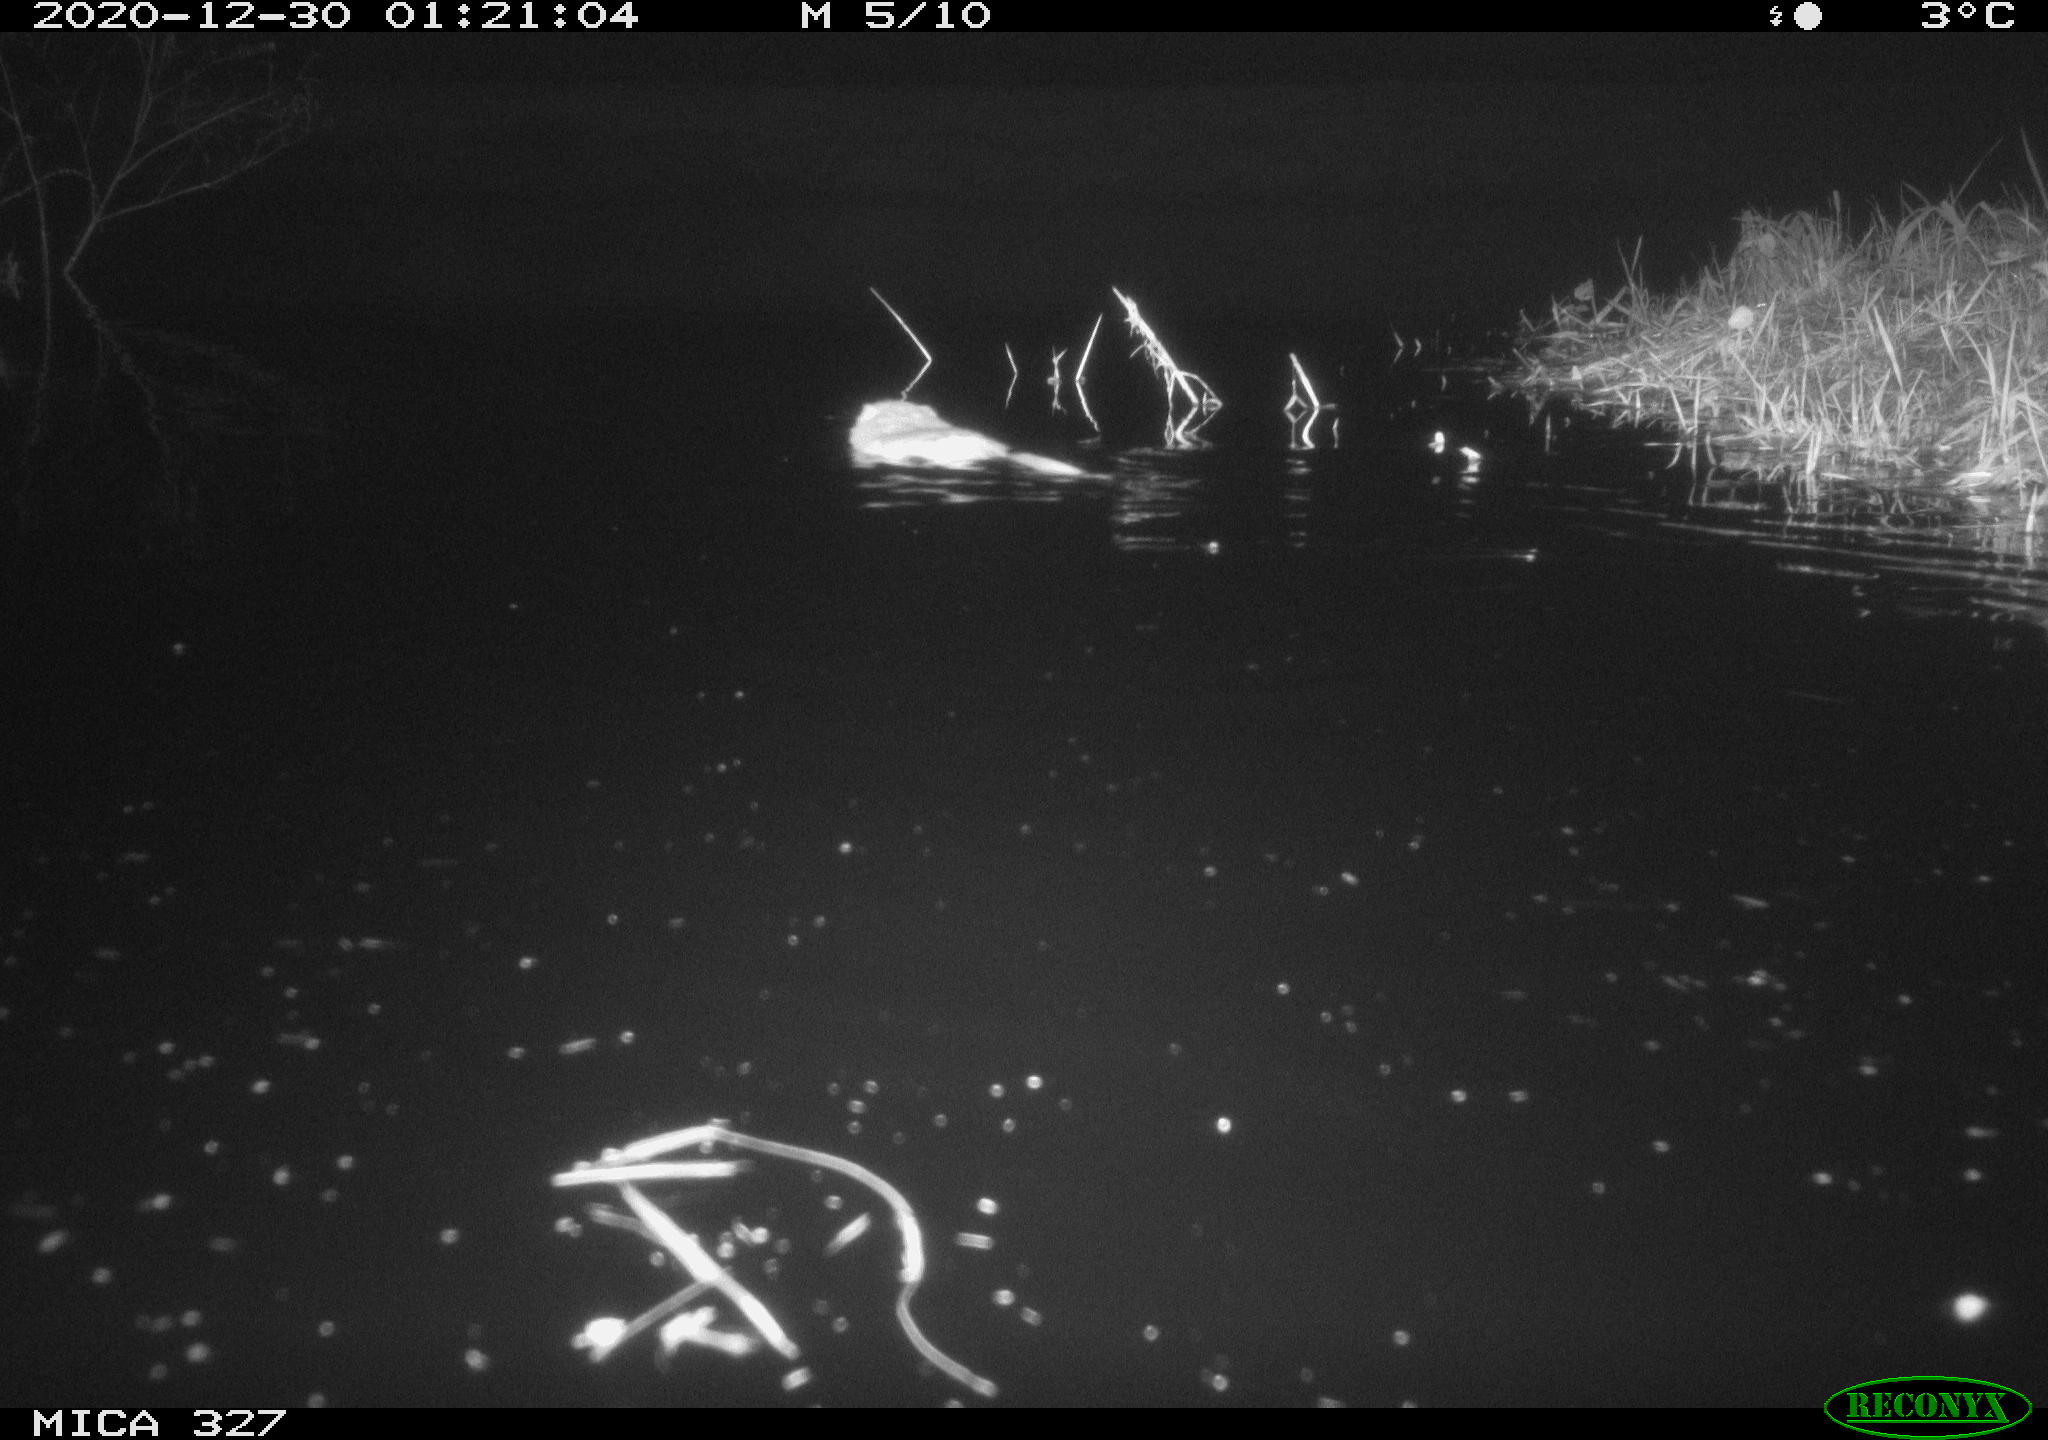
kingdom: Animalia
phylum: Chordata
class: Mammalia
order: Rodentia
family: Cricetidae
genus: Ondatra
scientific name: Ondatra zibethicus
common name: Muskrat
